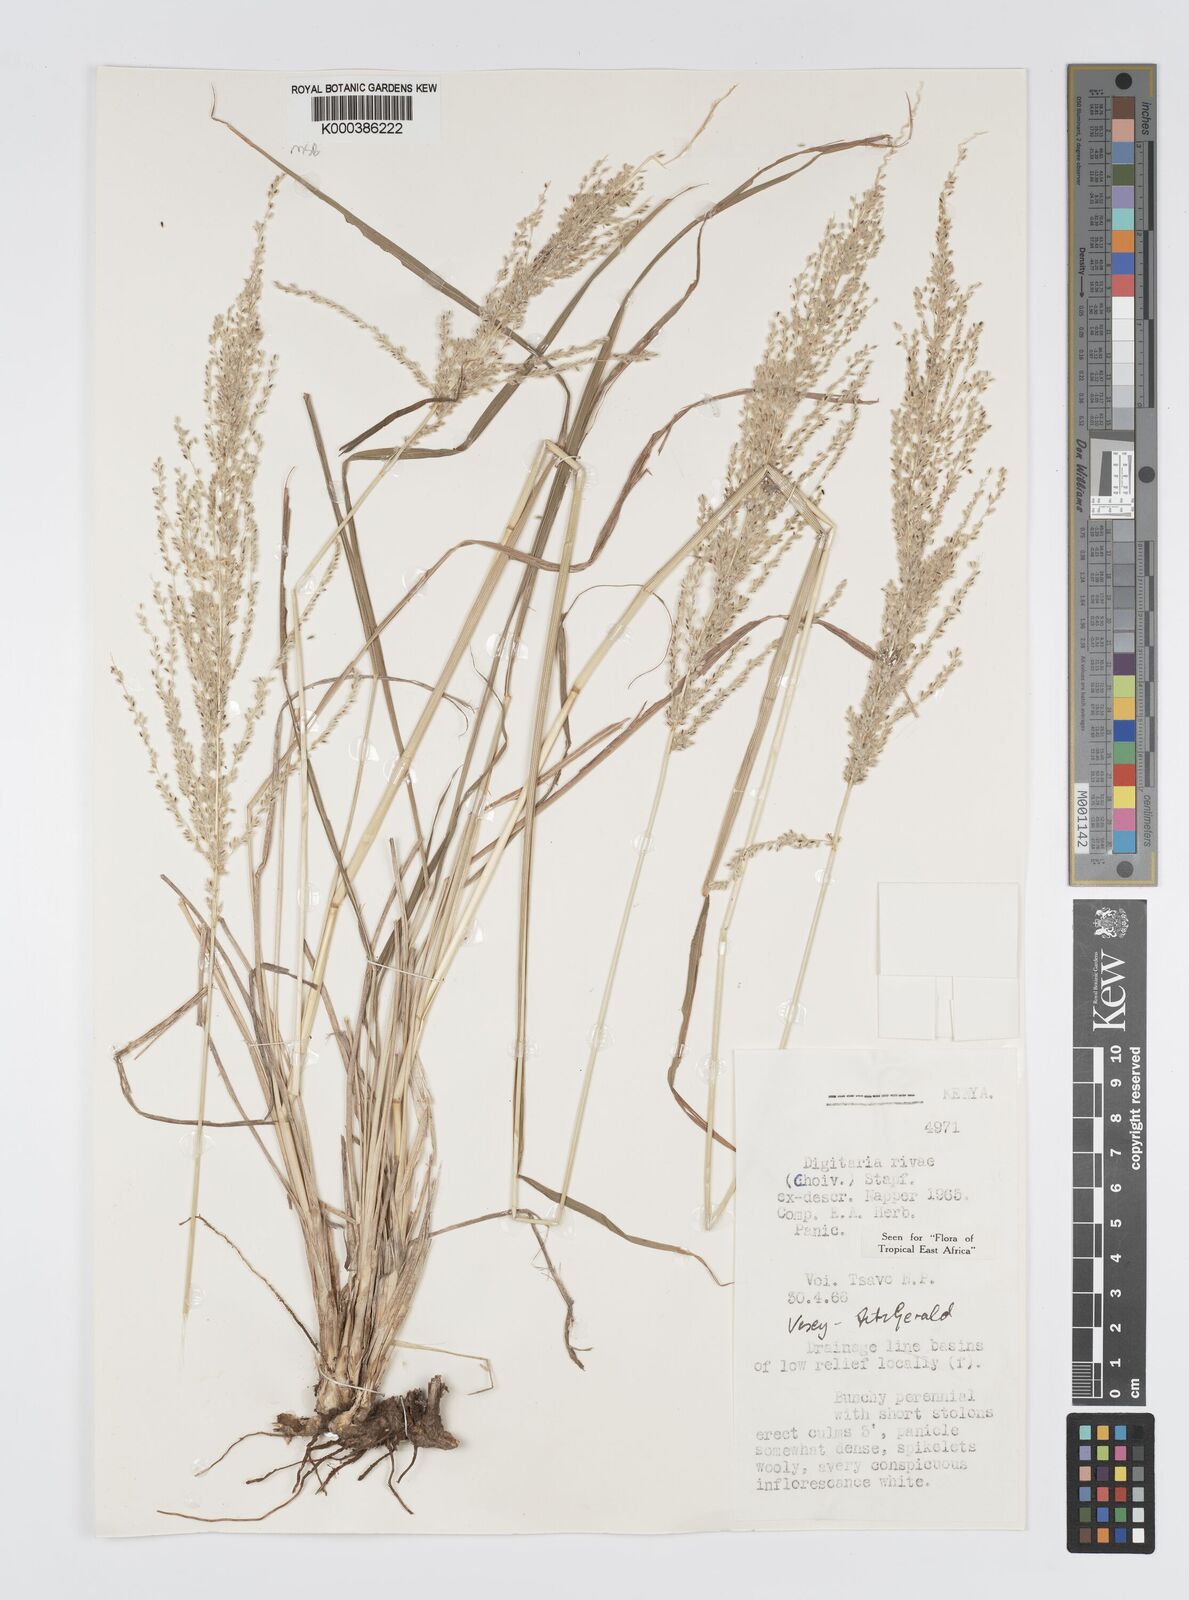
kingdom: Plantae
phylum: Tracheophyta
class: Liliopsida
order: Poales
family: Poaceae
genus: Digitaria
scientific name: Digitaria rivae
